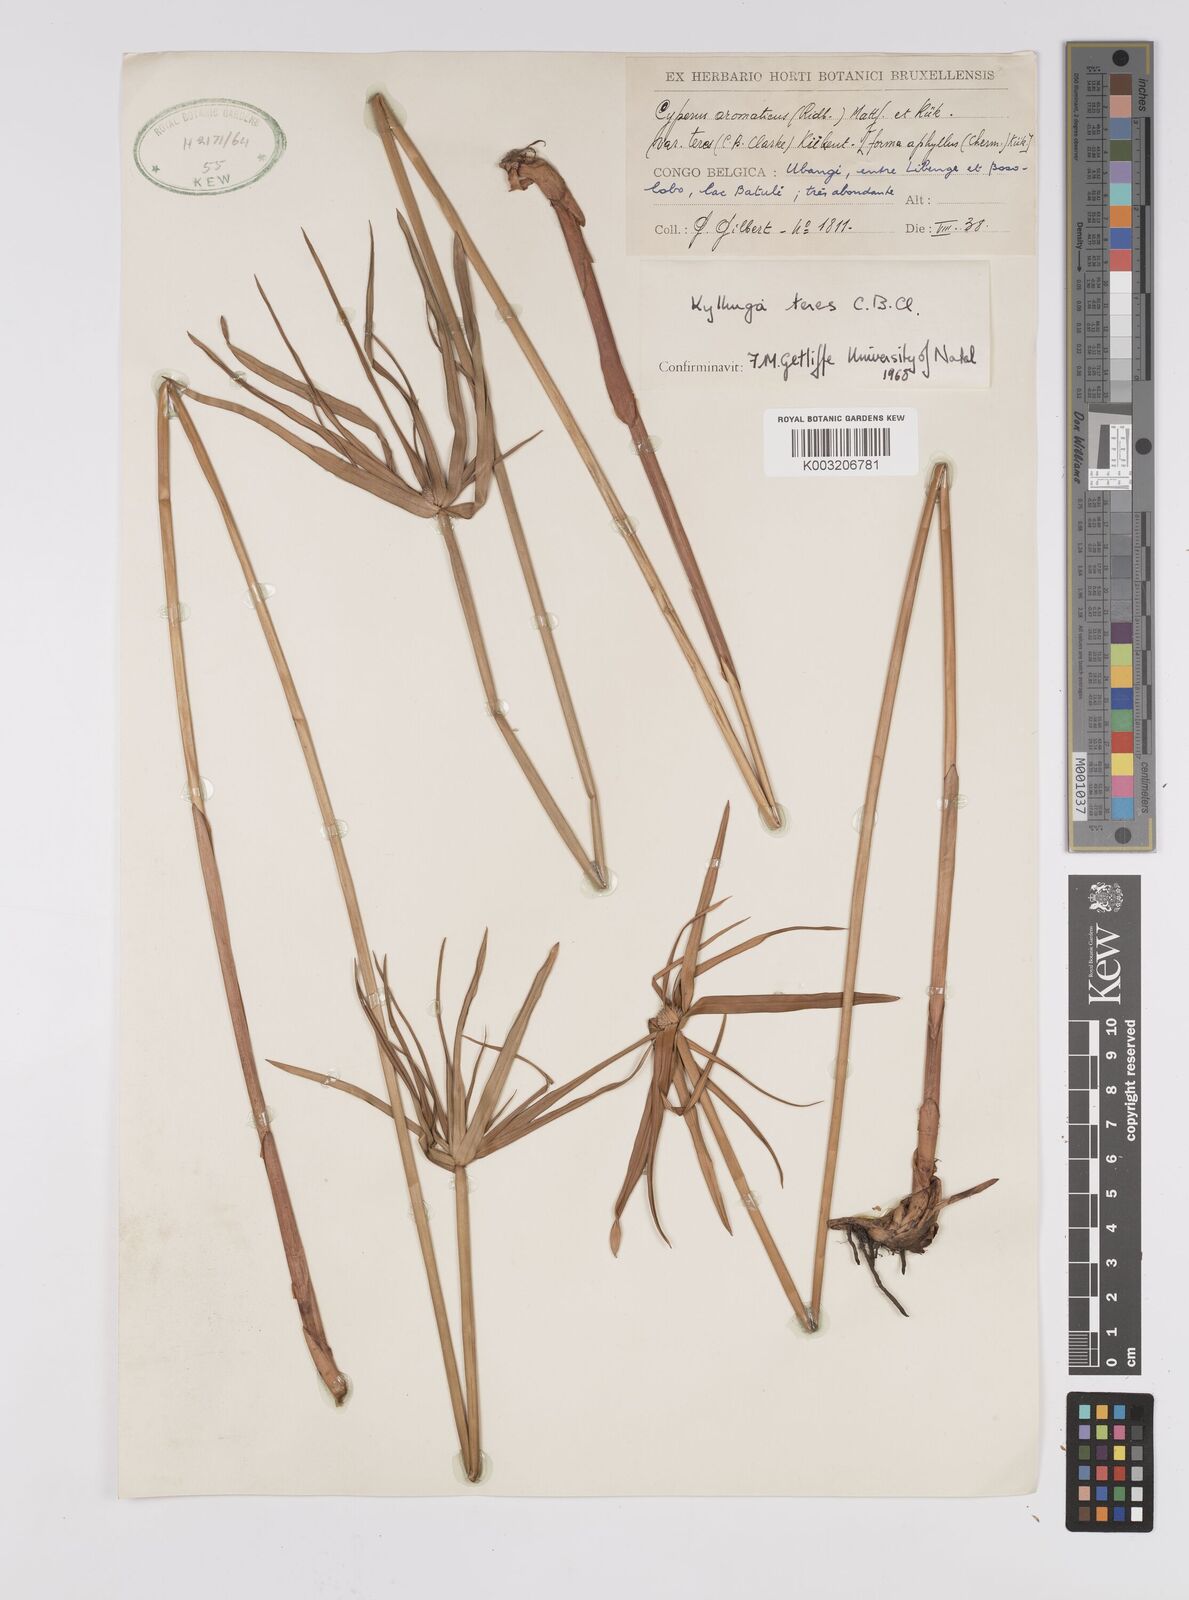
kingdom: Plantae
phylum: Tracheophyta
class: Liliopsida
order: Poales
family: Cyperaceae
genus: Cyperus
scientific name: Cyperus
